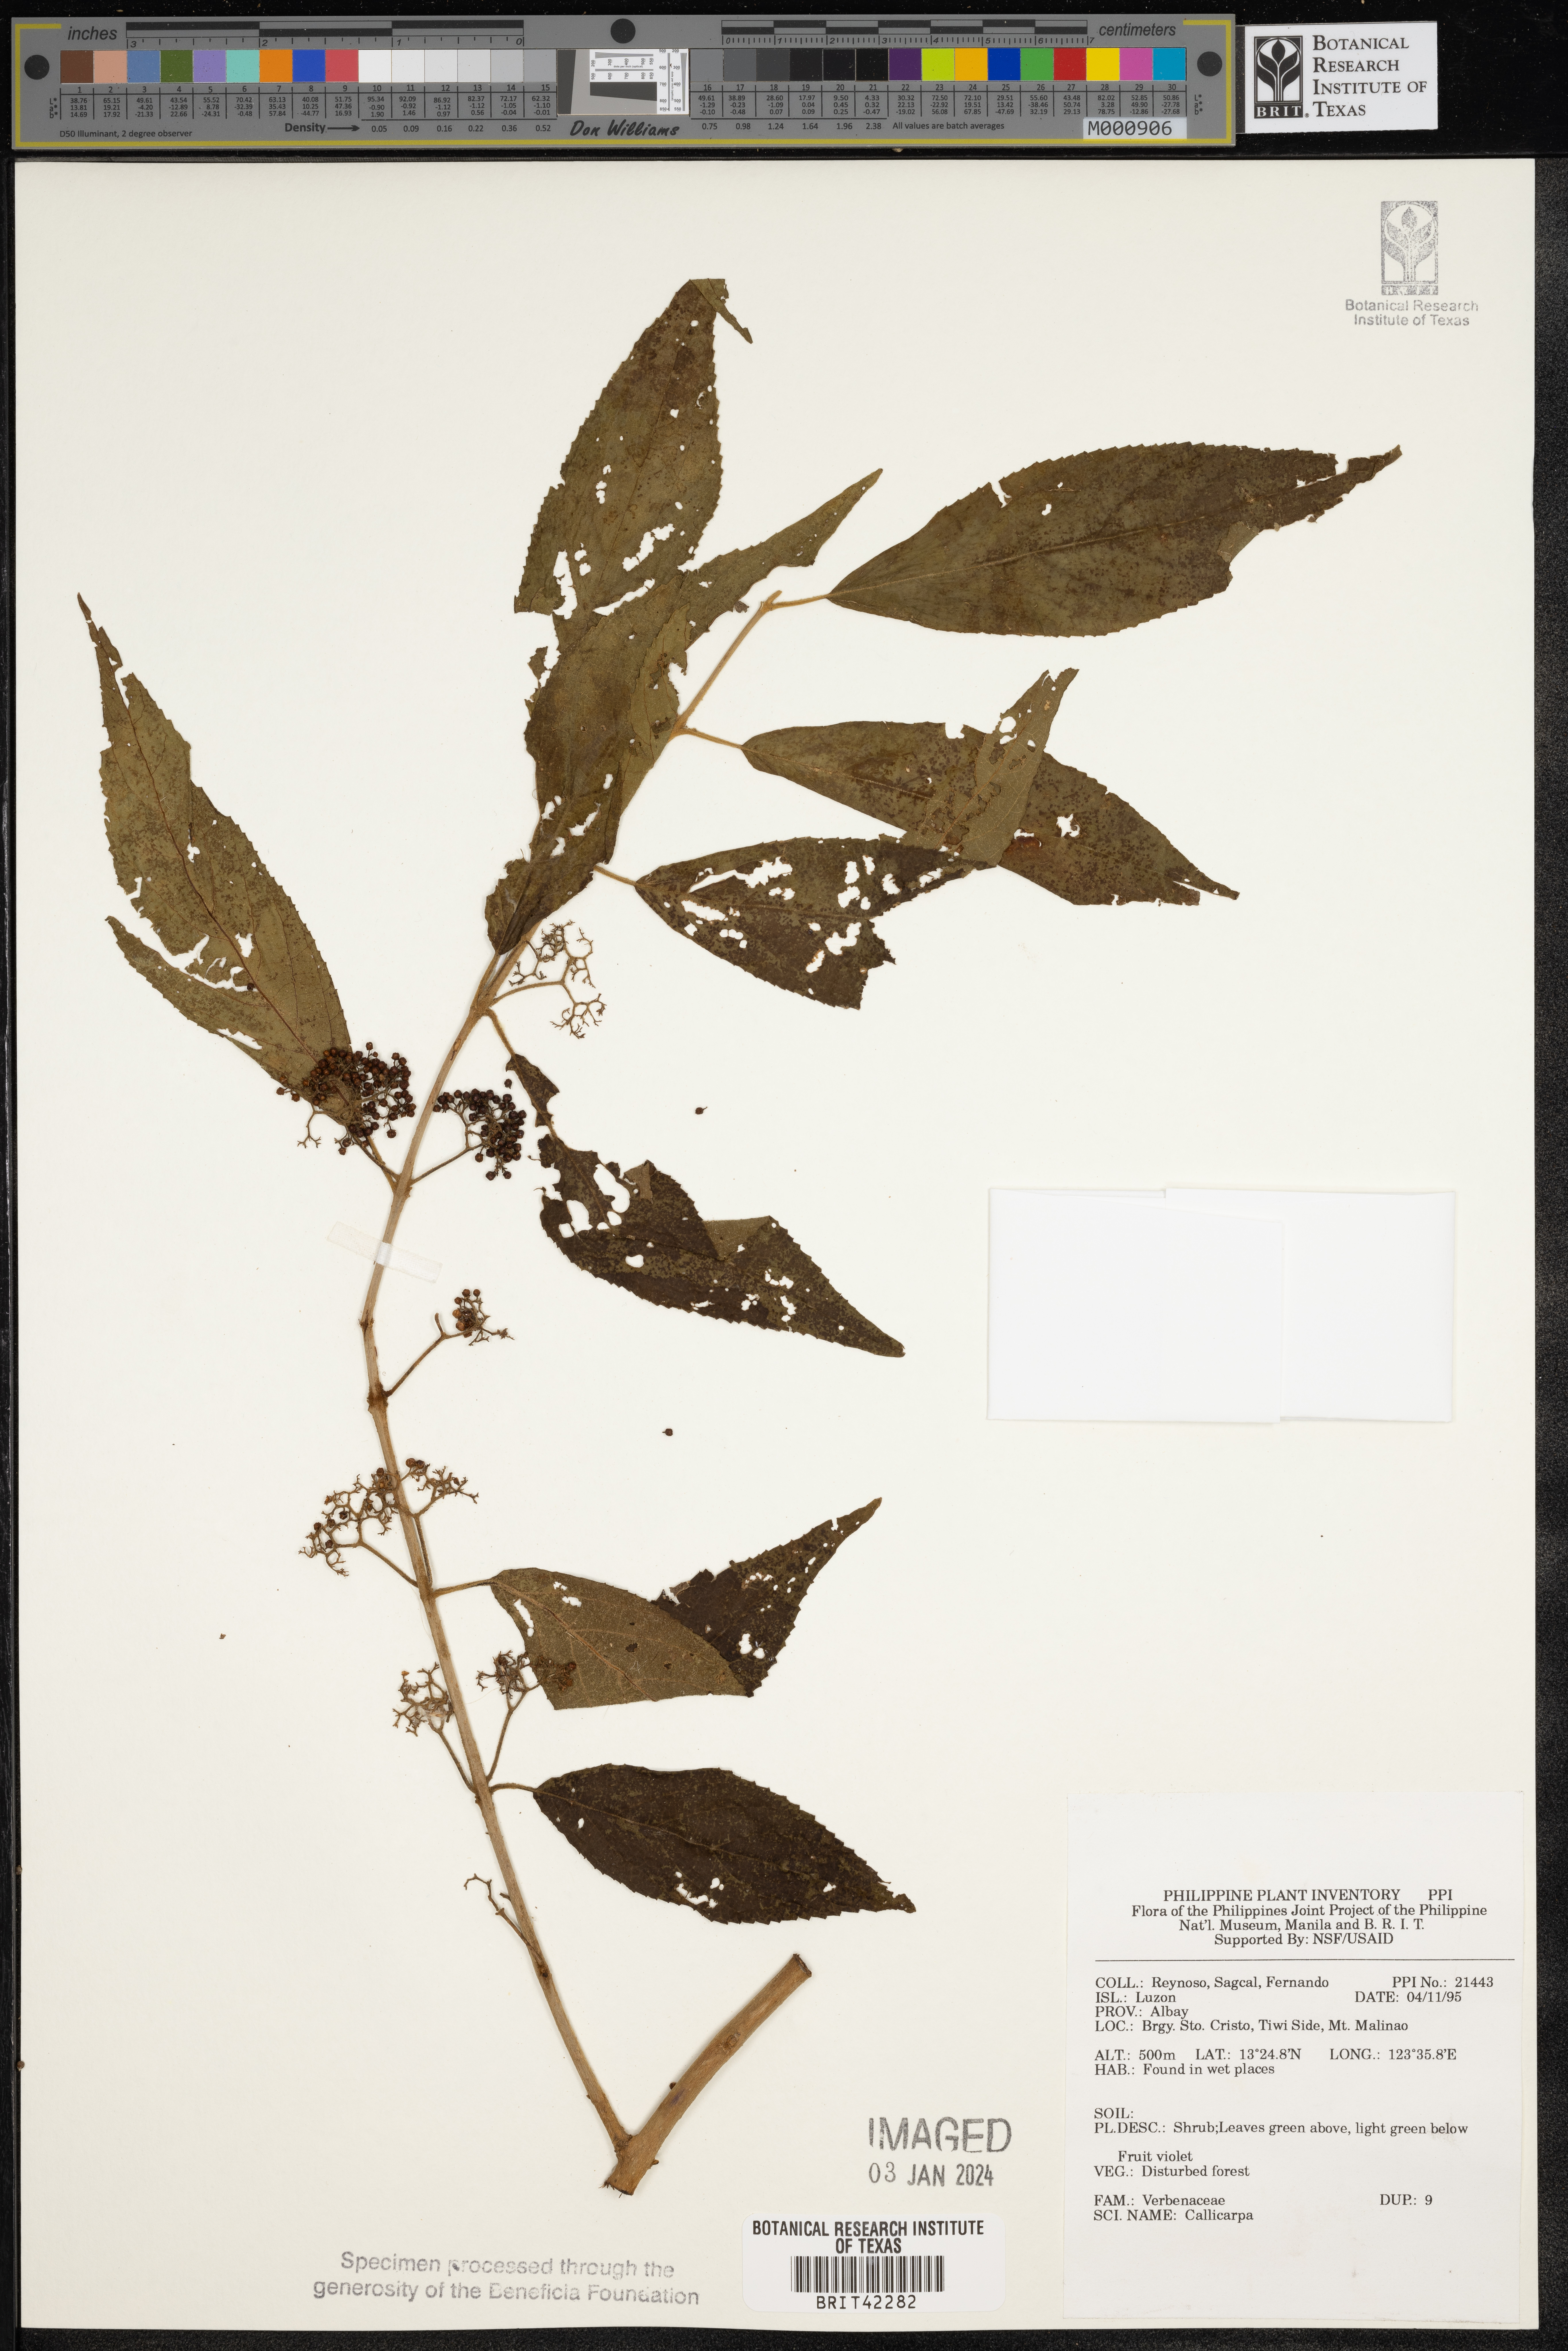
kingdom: Plantae
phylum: Tracheophyta
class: Magnoliopsida
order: Lamiales
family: Lamiaceae
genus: Callicarpa
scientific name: Callicarpa
